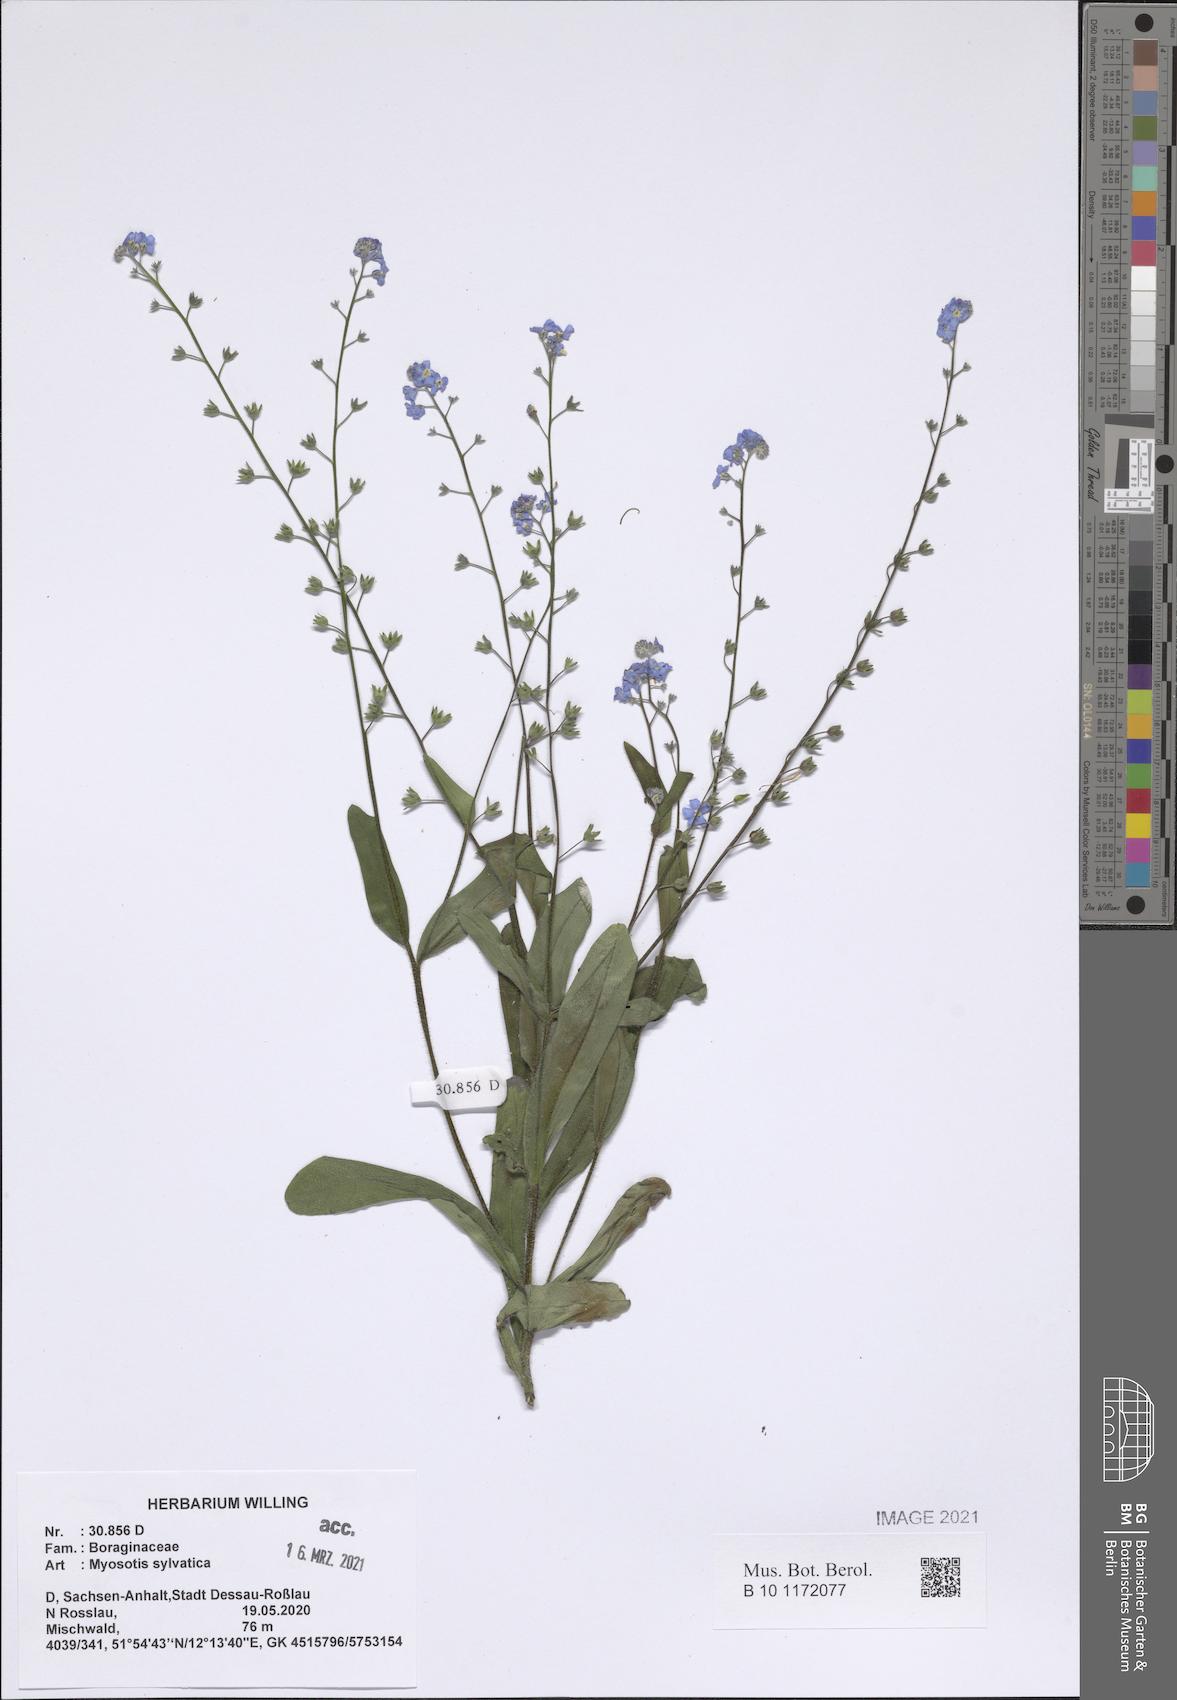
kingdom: Plantae
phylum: Tracheophyta
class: Magnoliopsida
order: Boraginales
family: Boraginaceae
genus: Myosotis
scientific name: Myosotis sylvatica
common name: Wood forget-me-not
